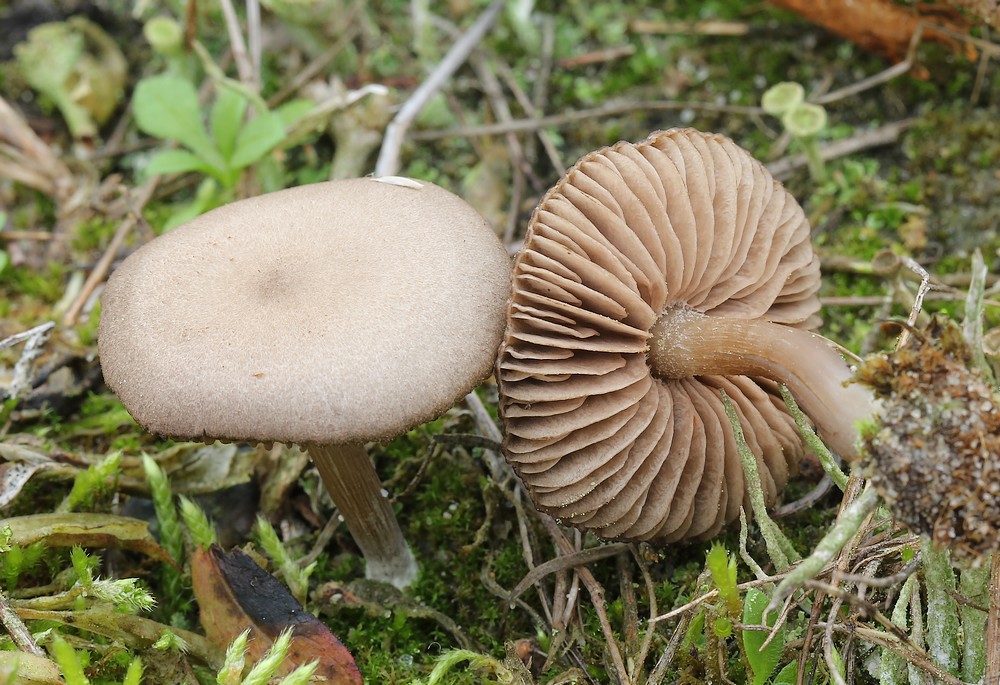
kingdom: Fungi
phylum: Basidiomycota
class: Agaricomycetes
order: Agaricales
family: Entolomataceae
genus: Entoloma
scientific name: Entoloma
